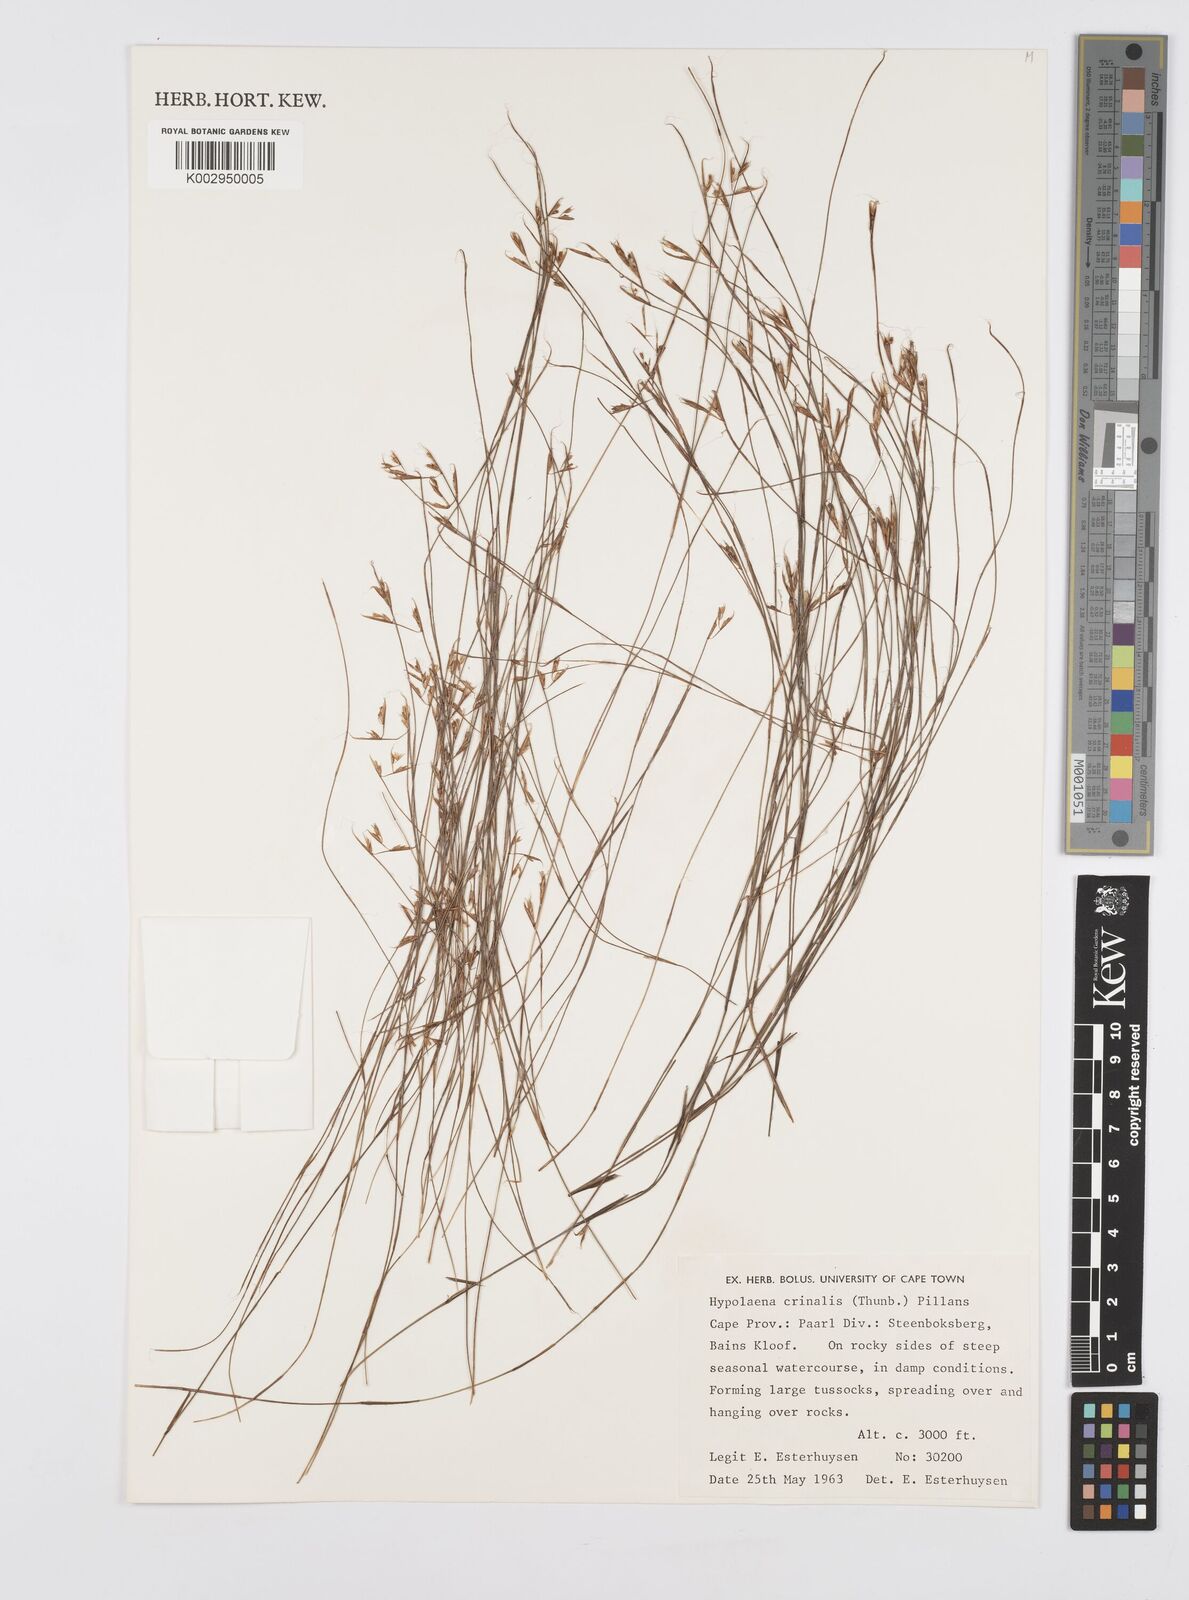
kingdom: Plantae
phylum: Tracheophyta
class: Liliopsida
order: Poales
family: Restionaceae
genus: Anthochortus
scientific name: Anthochortus crinalis
